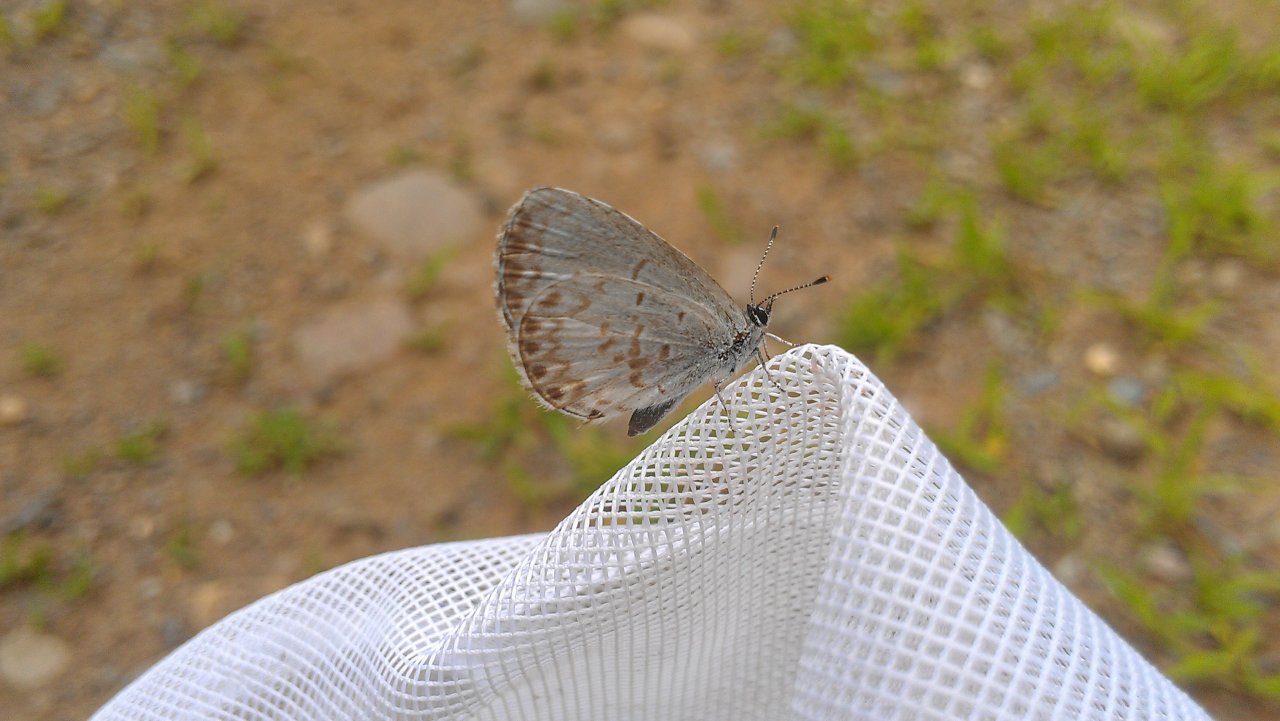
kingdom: Animalia
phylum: Arthropoda
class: Insecta
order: Lepidoptera
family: Lycaenidae
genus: Celastrina
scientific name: Celastrina
